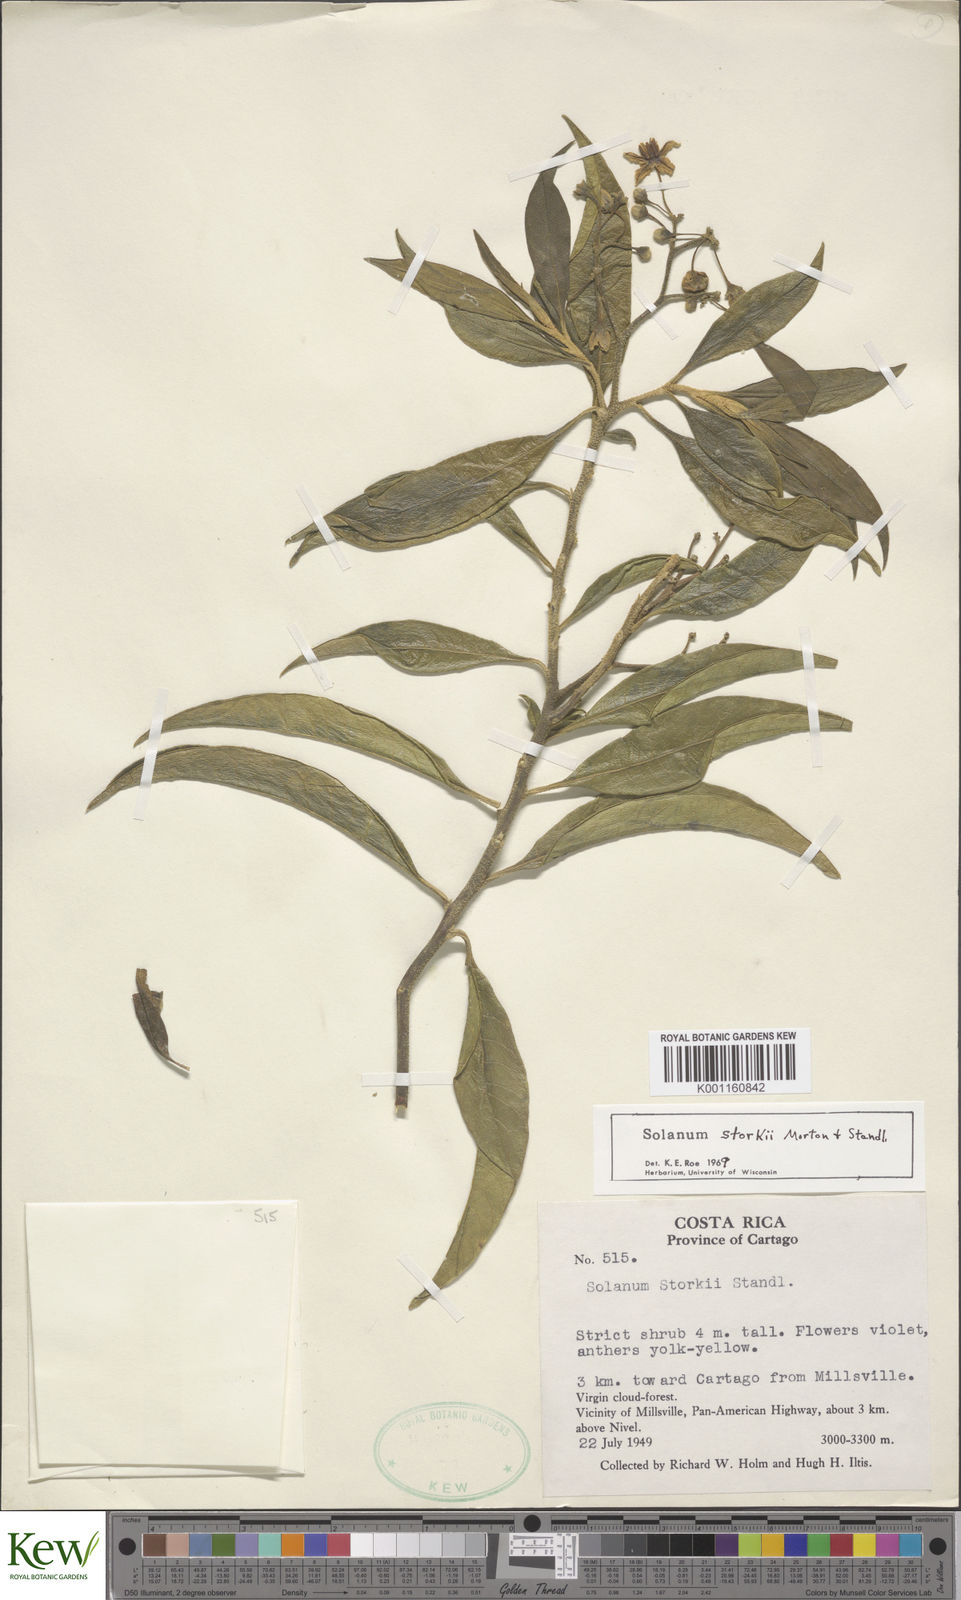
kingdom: Plantae
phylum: Tracheophyta
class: Magnoliopsida
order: Solanales
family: Solanaceae
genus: Solanum
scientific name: Solanum storkii
